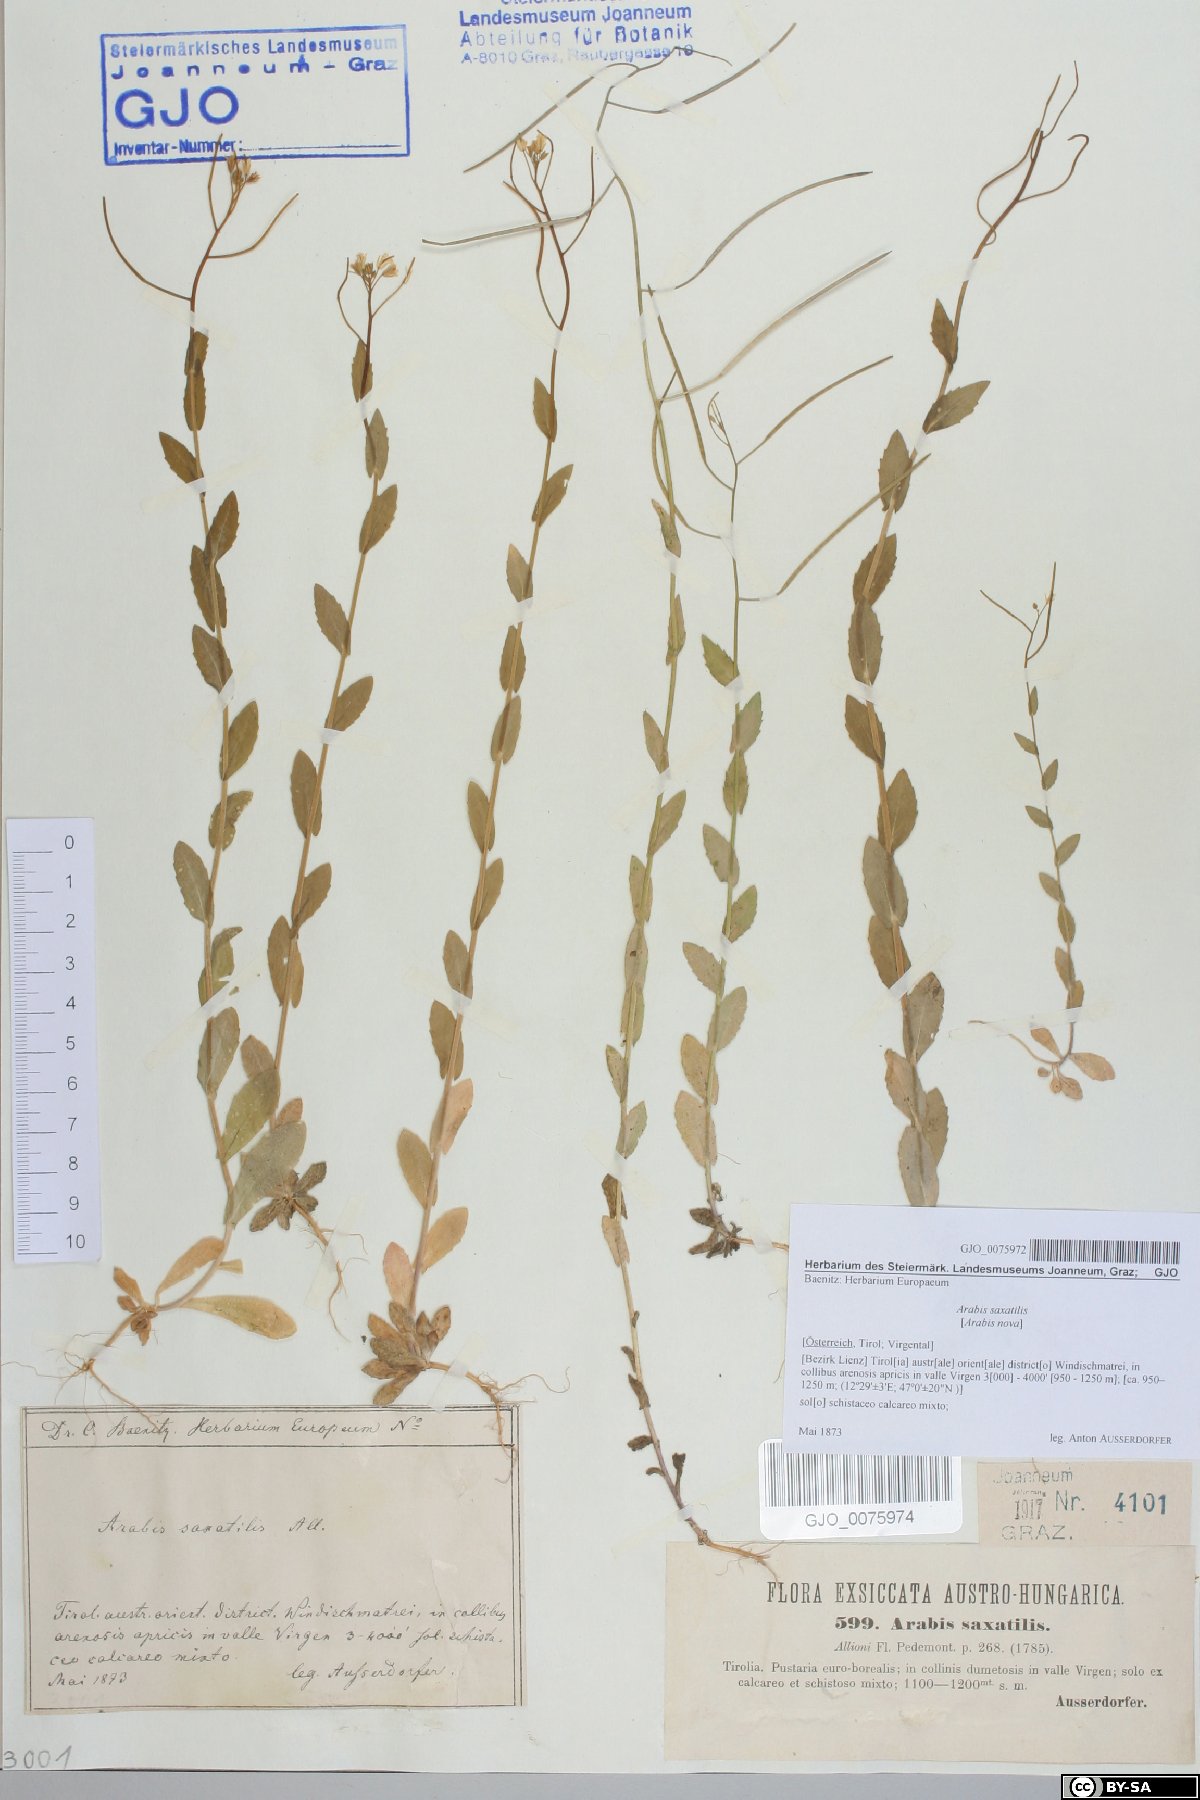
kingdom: Plantae
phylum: Tracheophyta
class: Magnoliopsida
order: Brassicales
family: Brassicaceae
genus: Arabis
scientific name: Arabis nova
